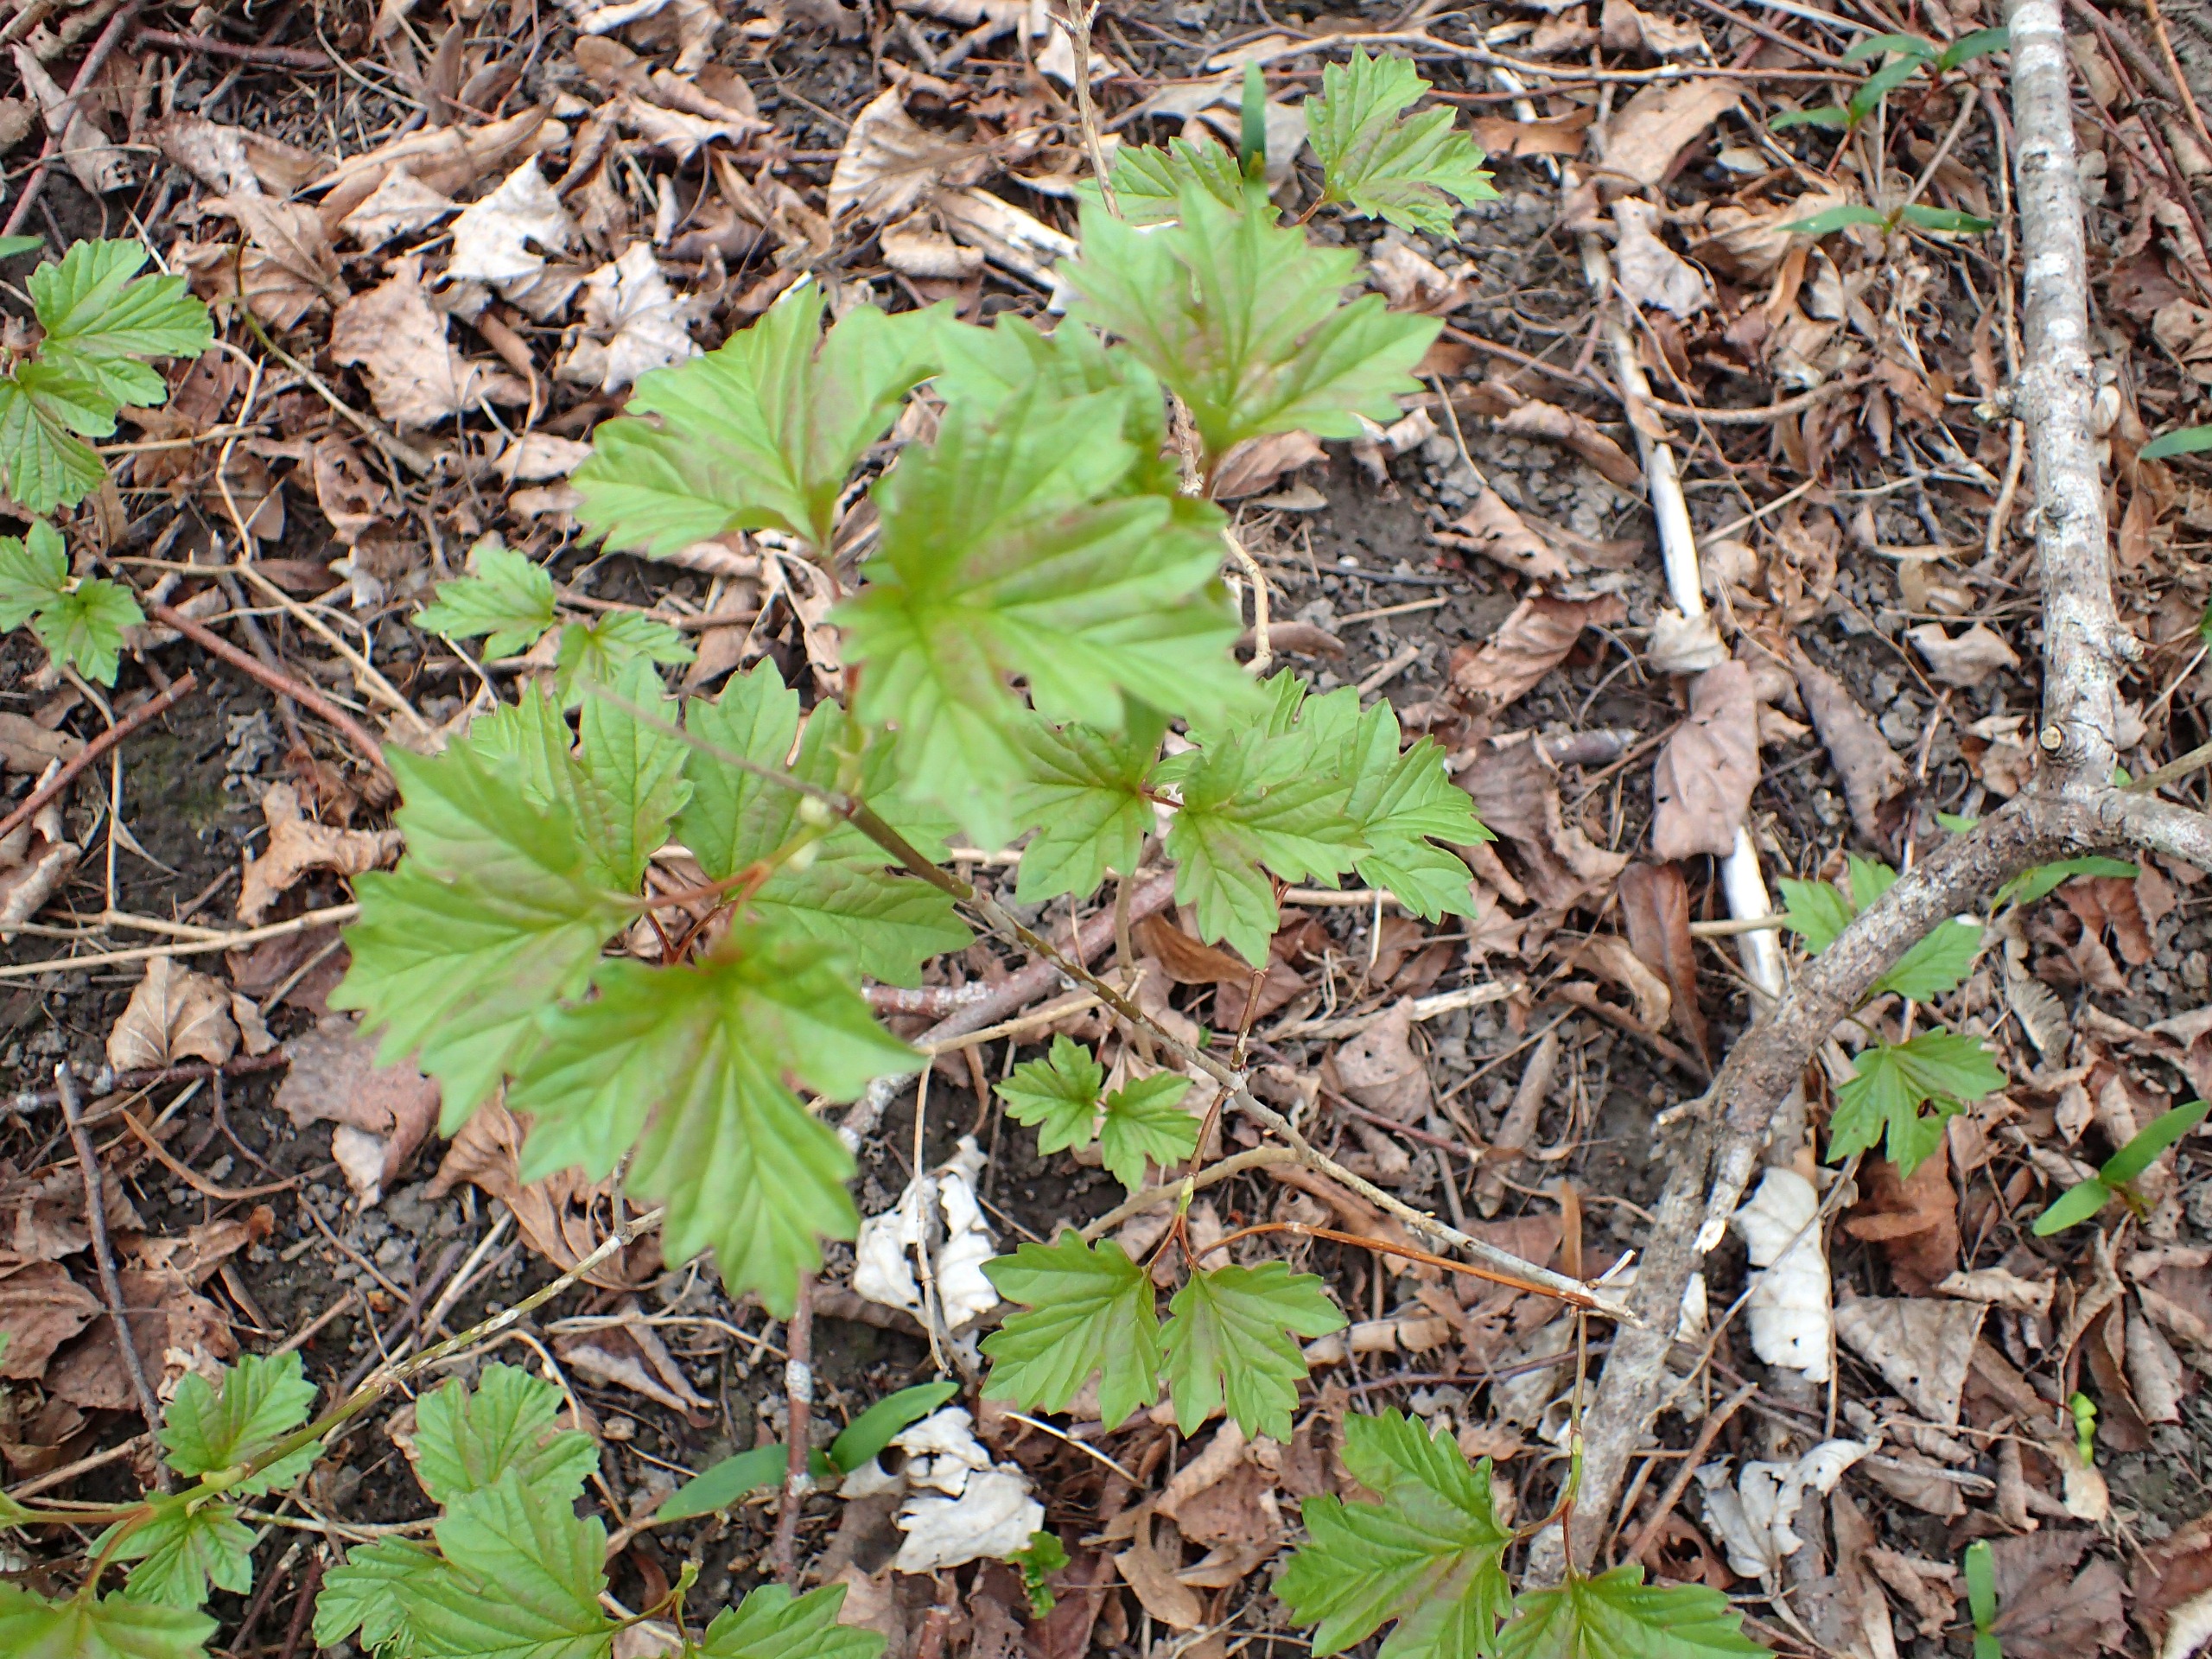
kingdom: Plantae
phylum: Tracheophyta
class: Magnoliopsida
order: Dipsacales
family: Viburnaceae
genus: Viburnum
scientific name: Viburnum opulus
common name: Kvalkved
